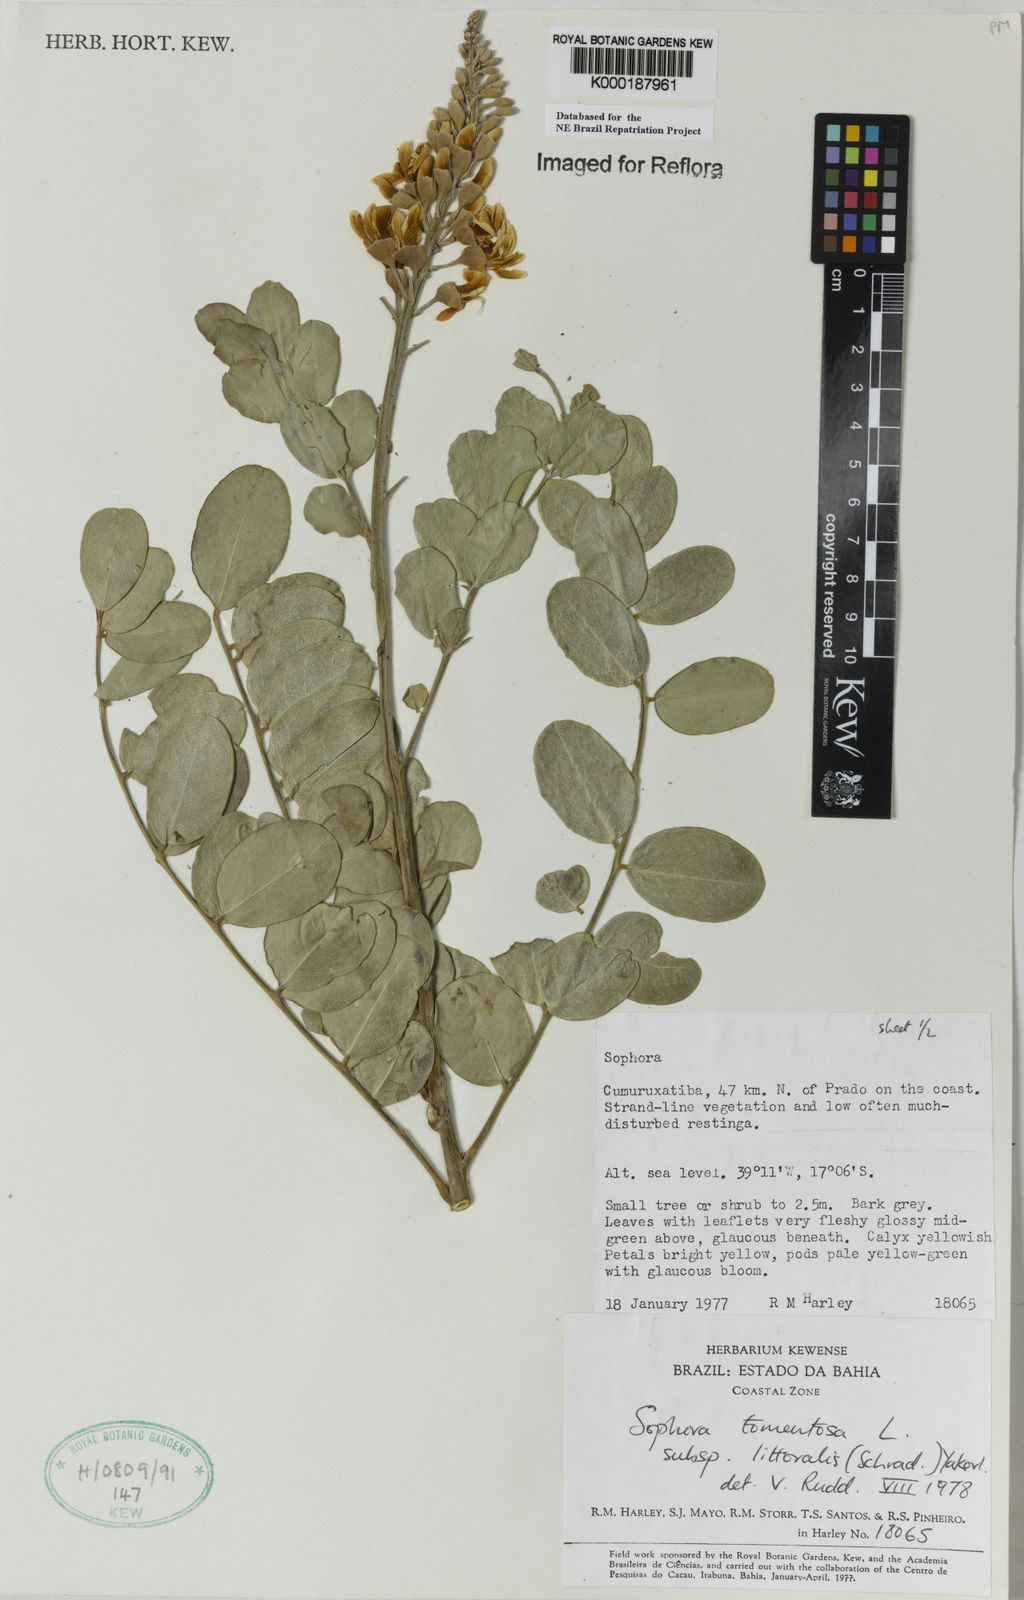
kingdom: Plantae
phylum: Tracheophyta
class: Magnoliopsida
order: Fabales
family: Fabaceae
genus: Sophora
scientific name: Sophora tomentosa
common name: Yellow necklacepod
